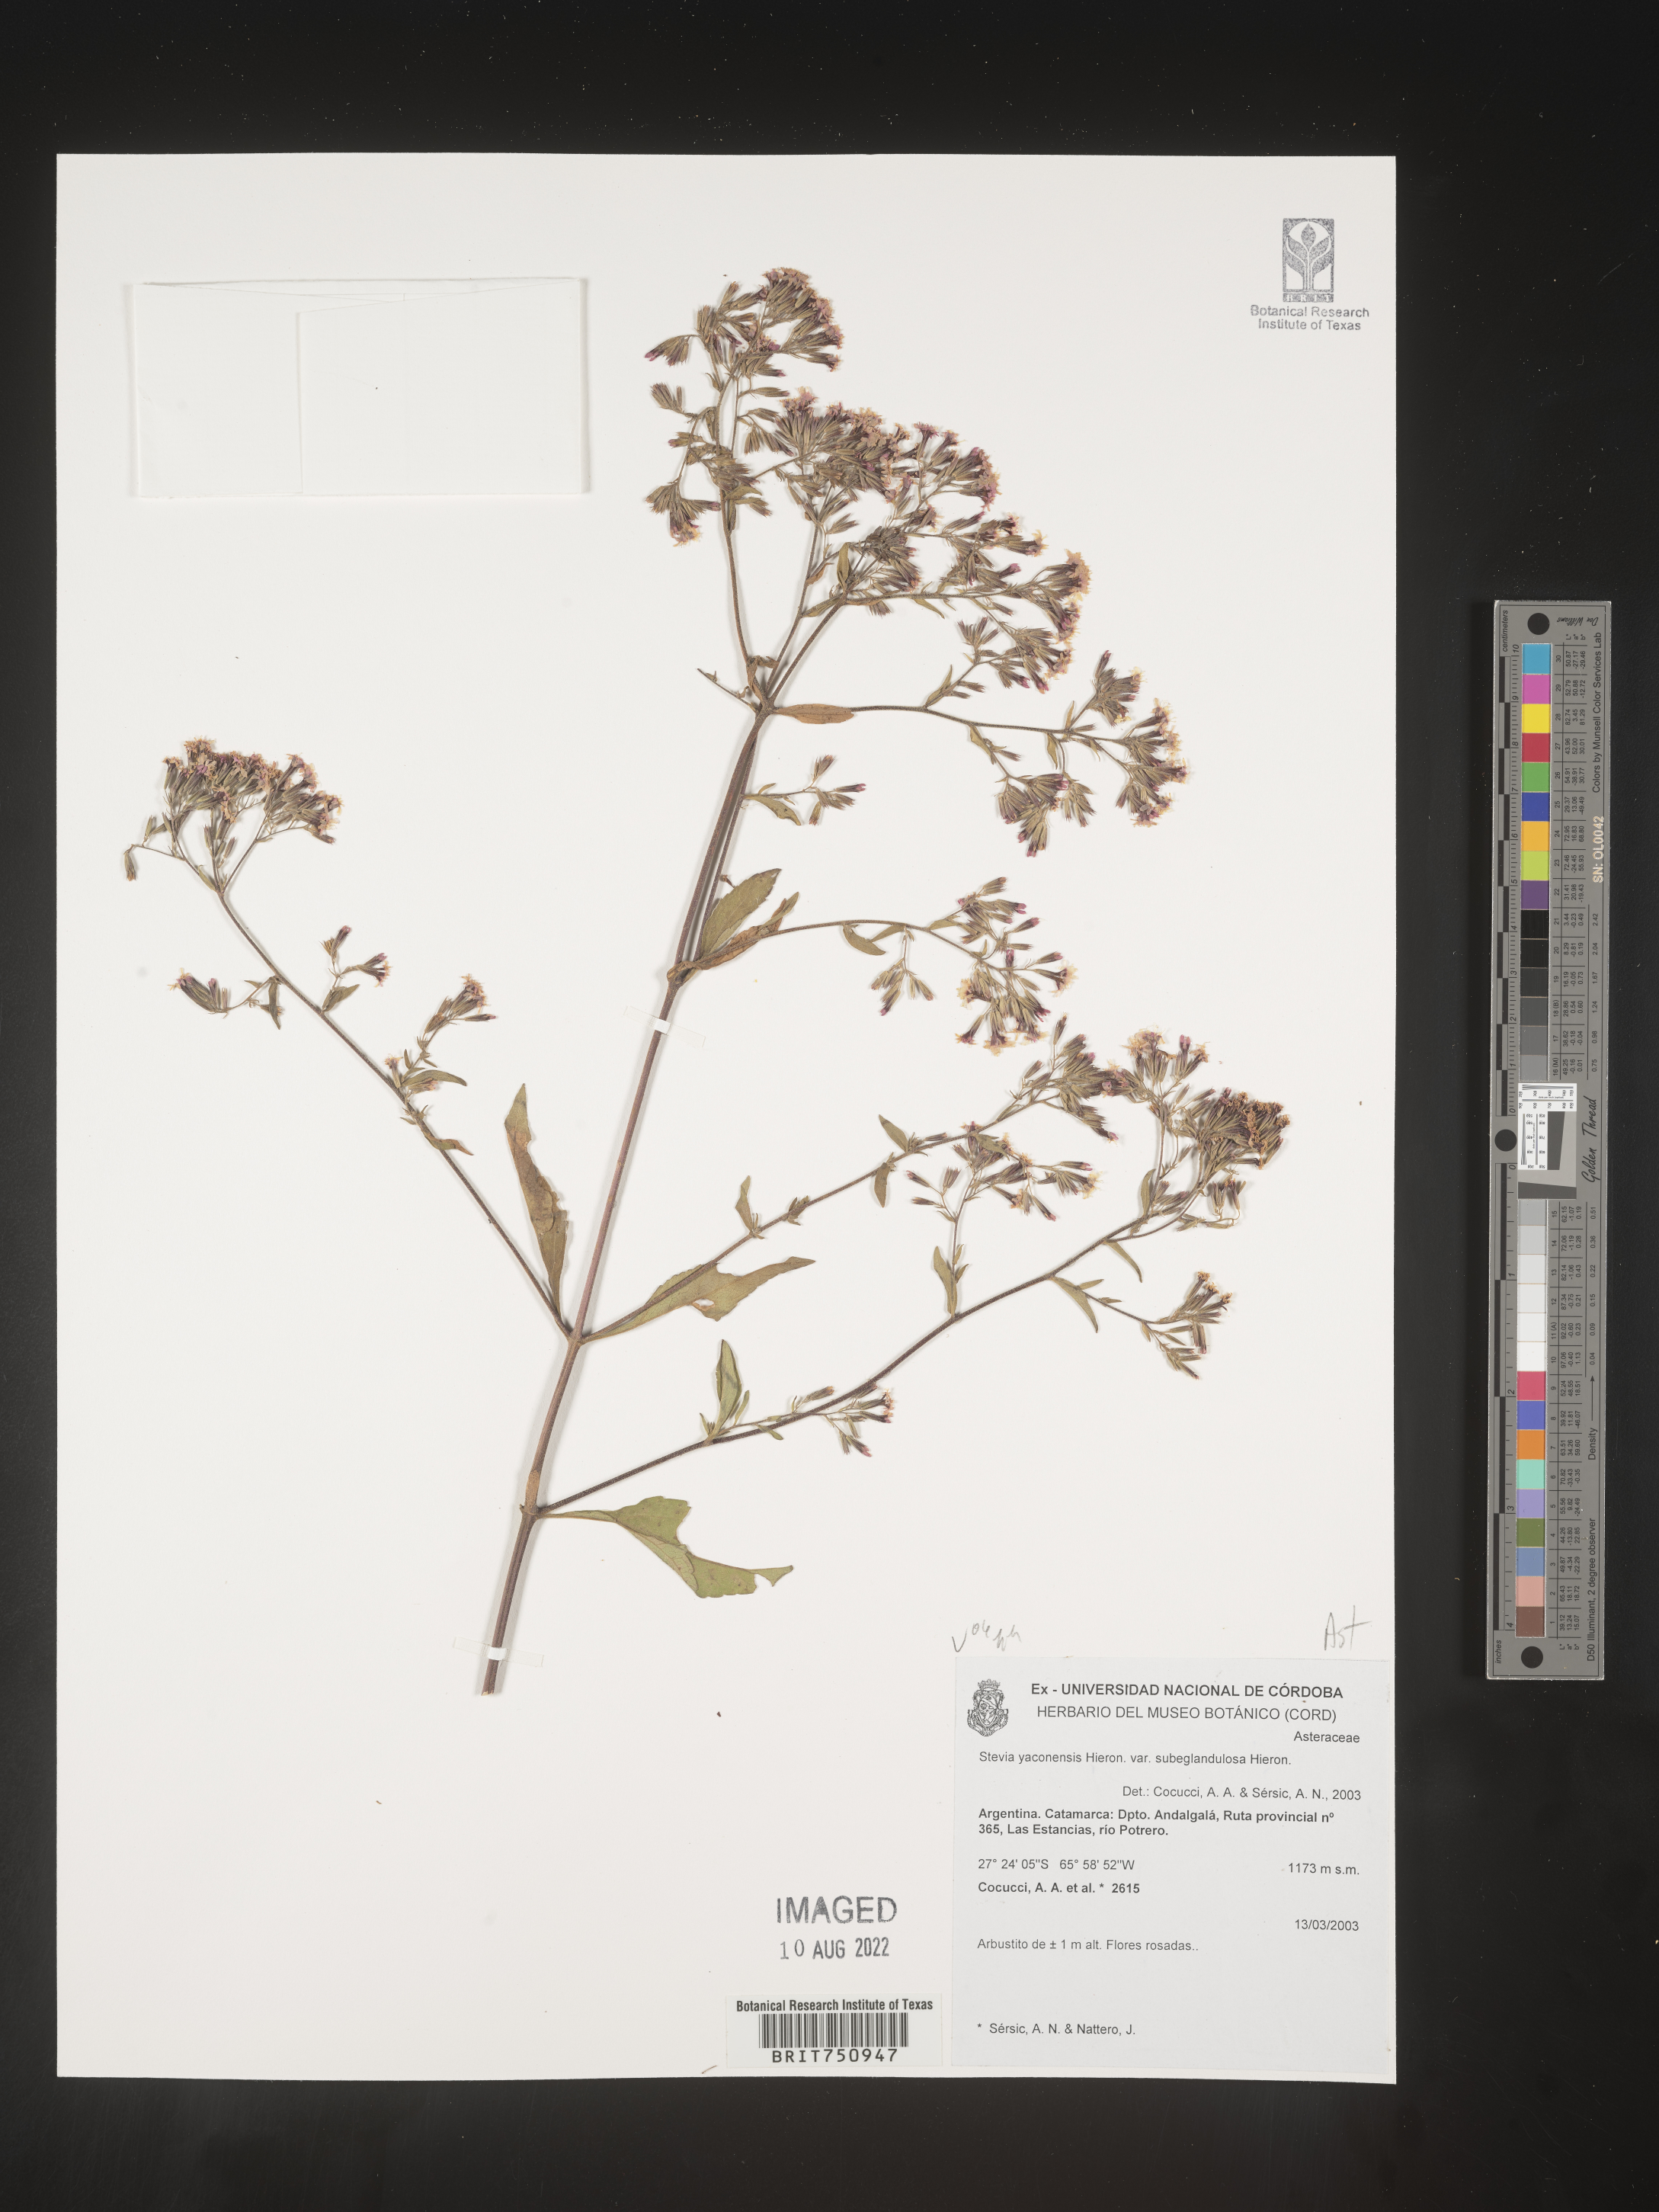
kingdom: Plantae
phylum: Tracheophyta
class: Magnoliopsida
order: Asterales
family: Asteraceae
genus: Stevia
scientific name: Stevia
